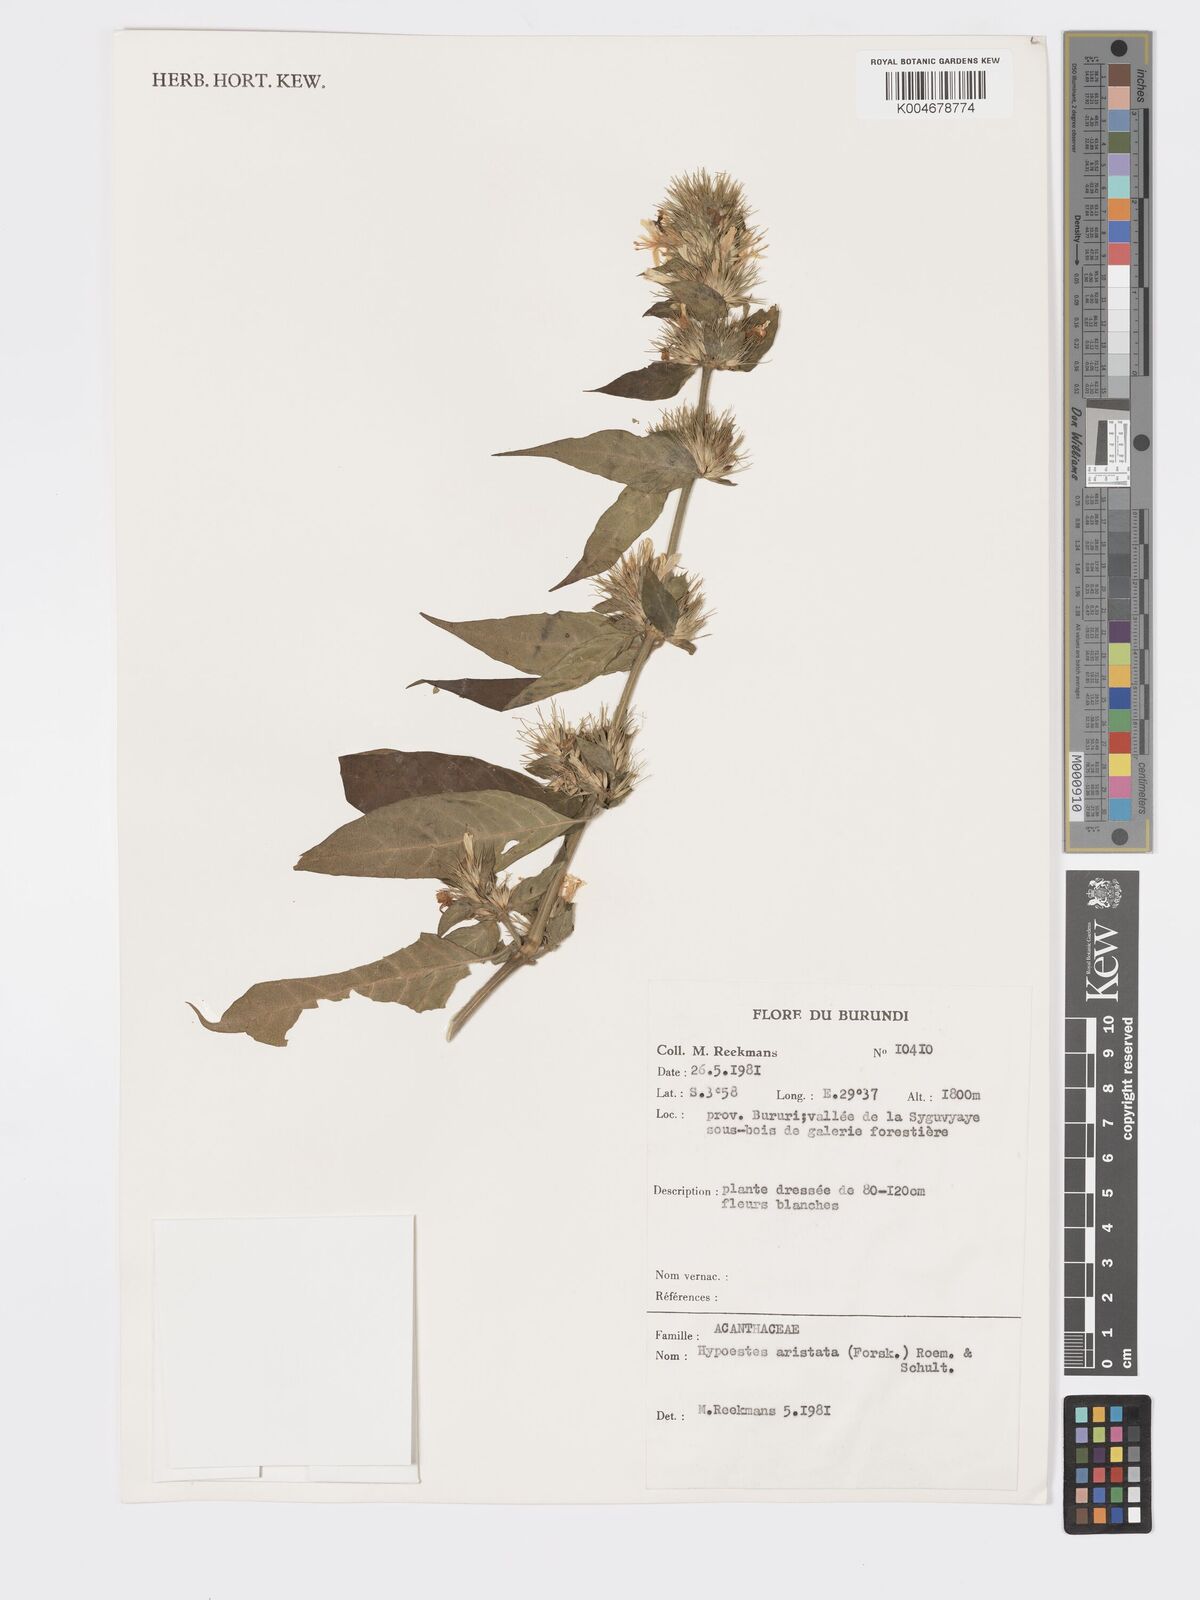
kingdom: Plantae
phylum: Tracheophyta
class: Magnoliopsida
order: Lamiales
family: Acanthaceae
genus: Hypoestes
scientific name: Hypoestes aristata
